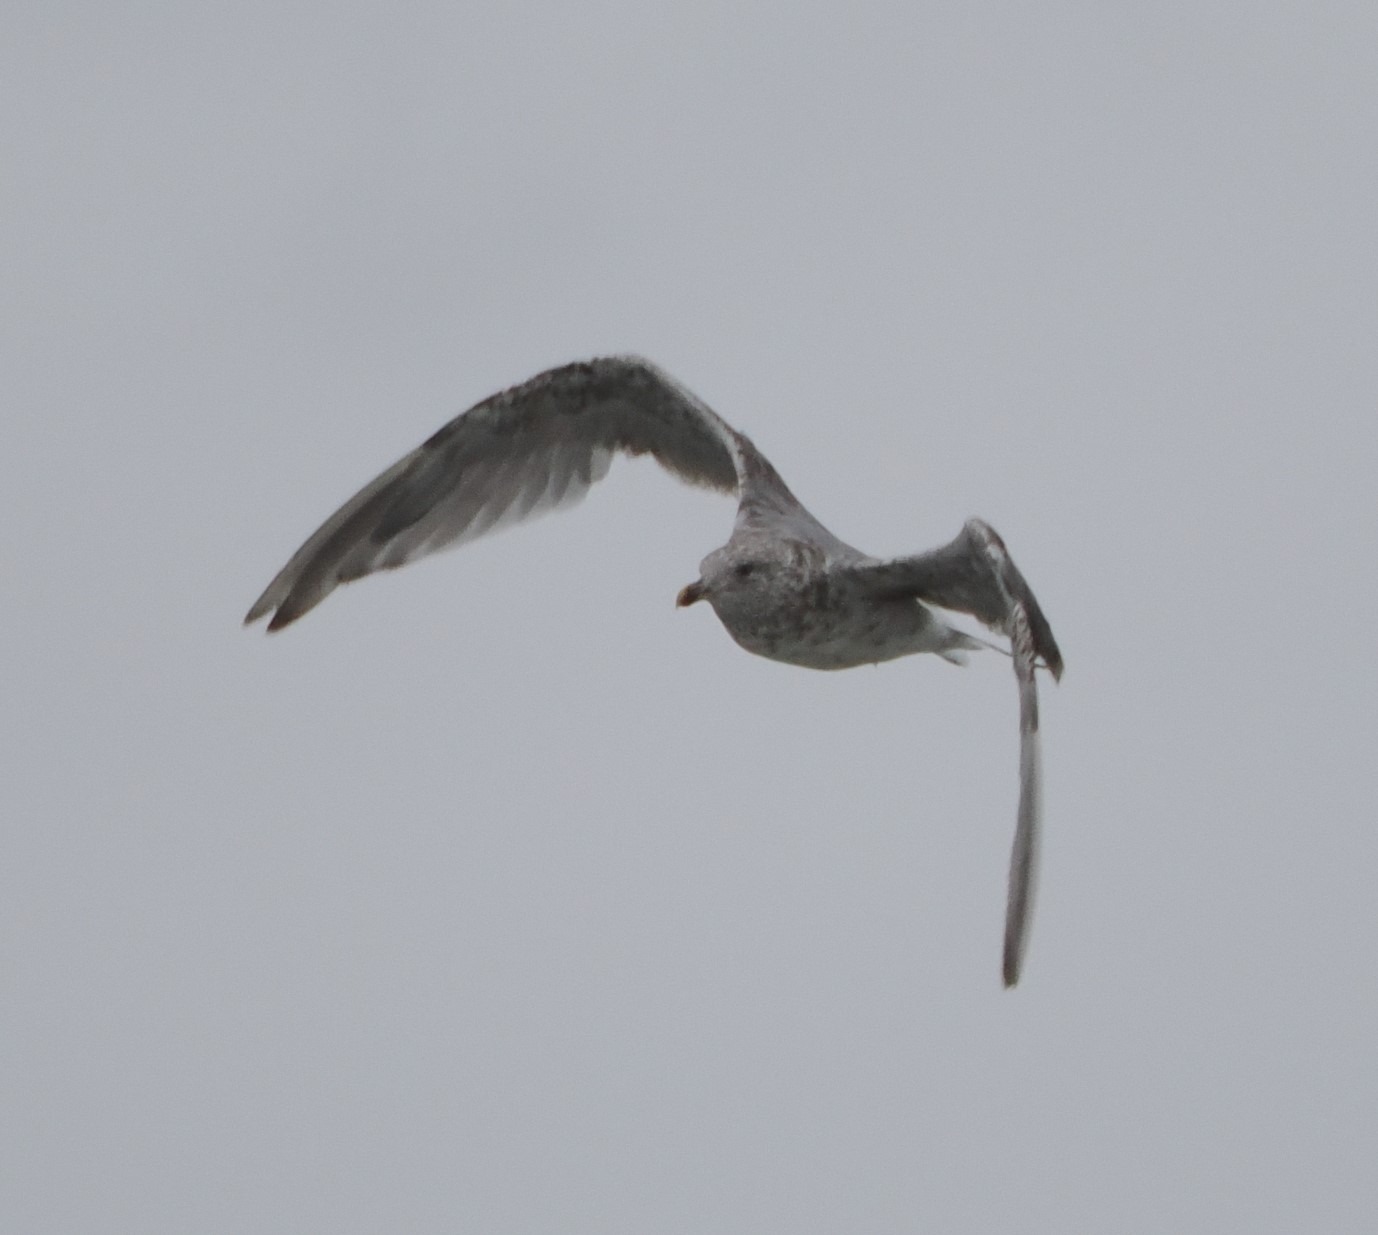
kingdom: Animalia
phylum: Chordata
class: Aves
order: Charadriiformes
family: Laridae
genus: Larus
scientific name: Larus argentatus
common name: Sølvmåge
